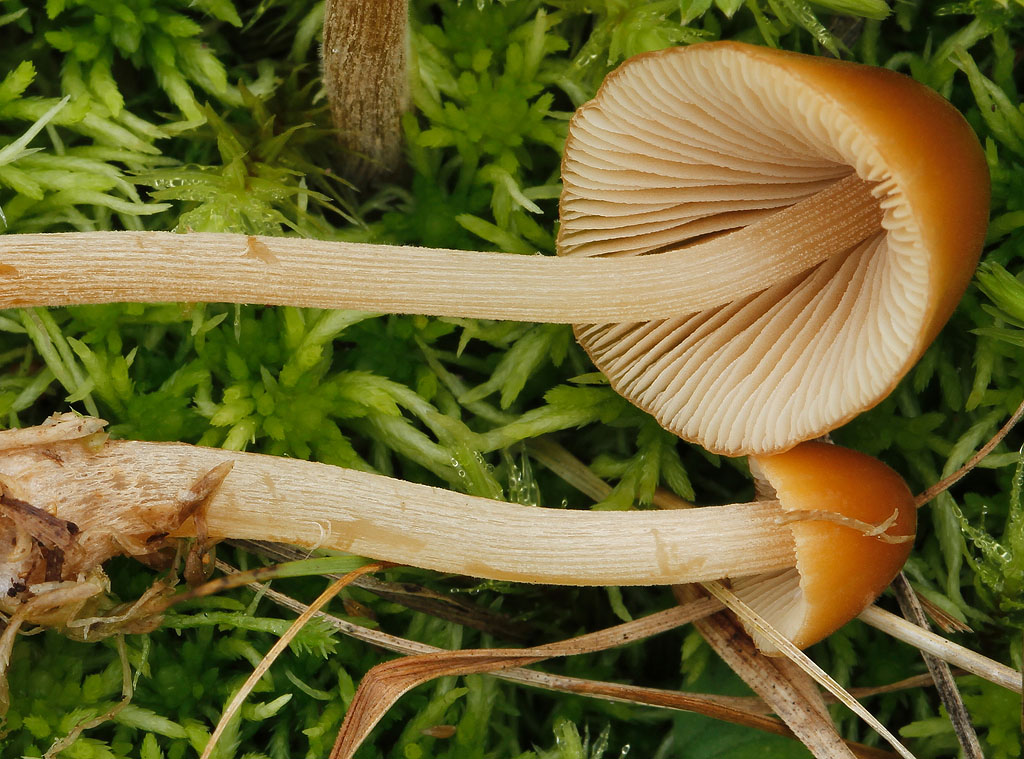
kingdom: Fungi
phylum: Basidiomycota
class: Agaricomycetes
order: Agaricales
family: Bolbitiaceae
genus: Conocybe
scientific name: Conocybe subpubescens
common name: krat-keglehat
